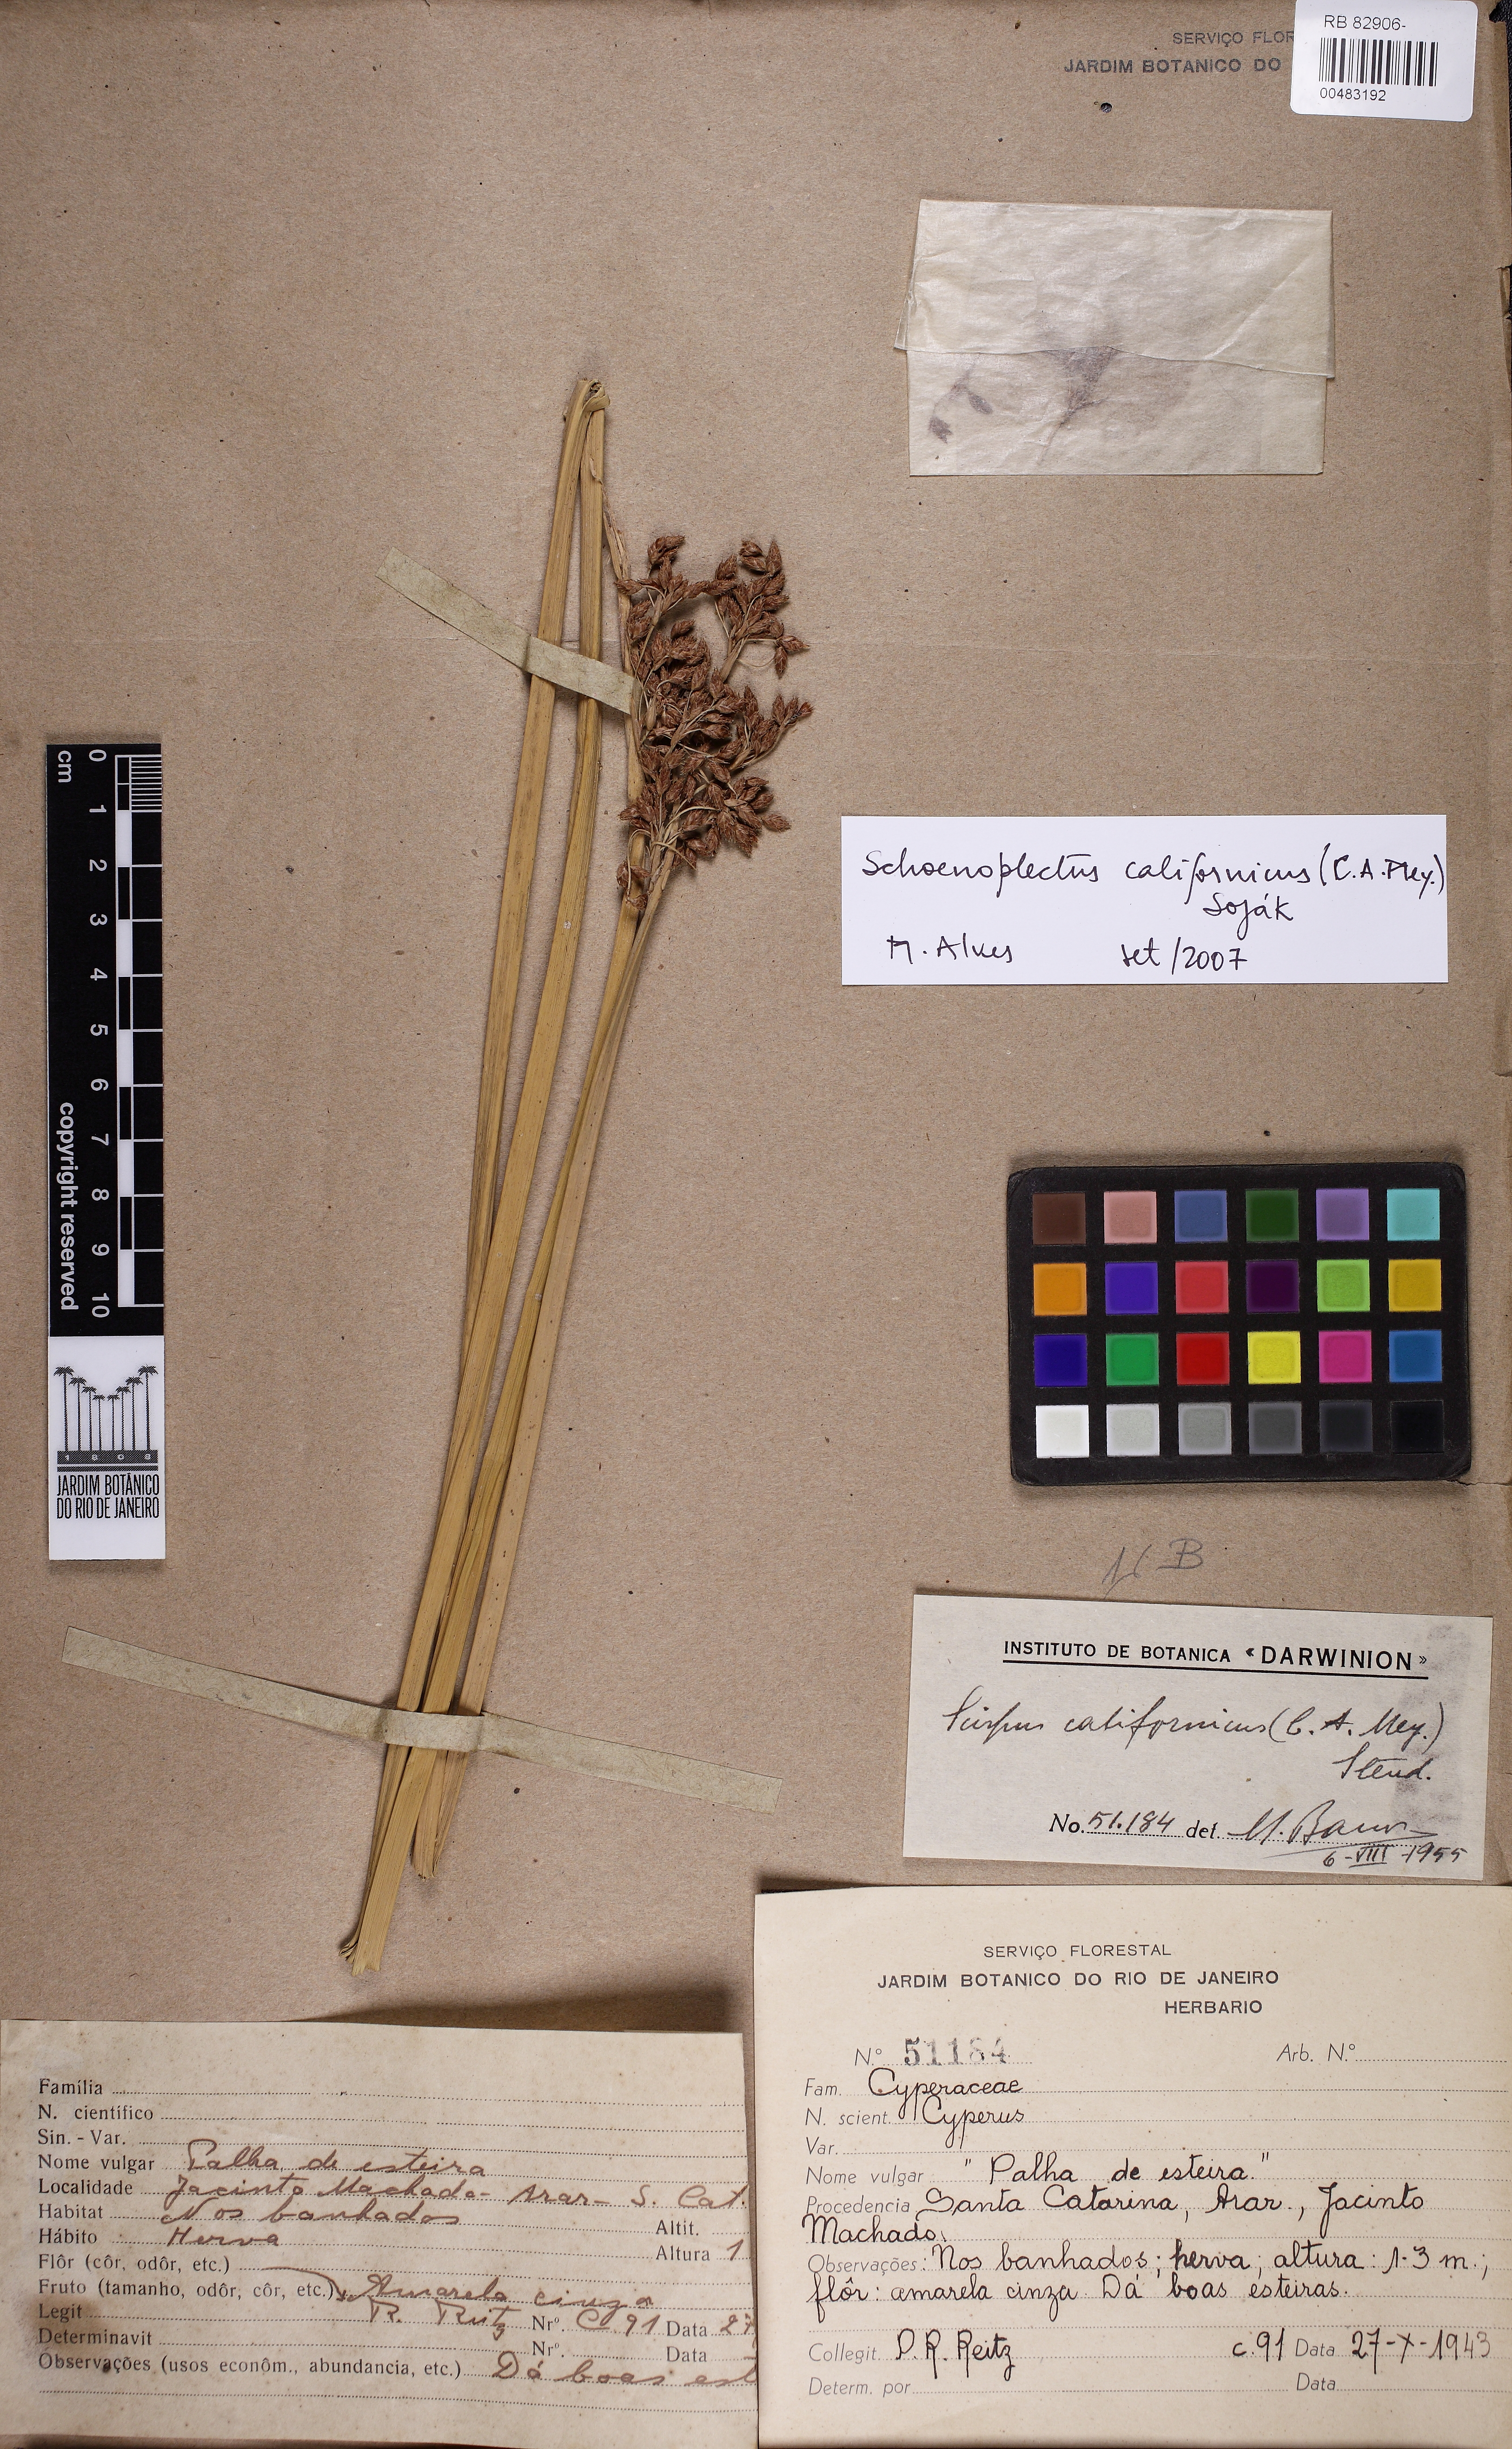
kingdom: Plantae
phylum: Tracheophyta
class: Liliopsida
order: Poales
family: Cyperaceae
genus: Schoenoplectus
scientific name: Schoenoplectus californicus
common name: California bulrush
